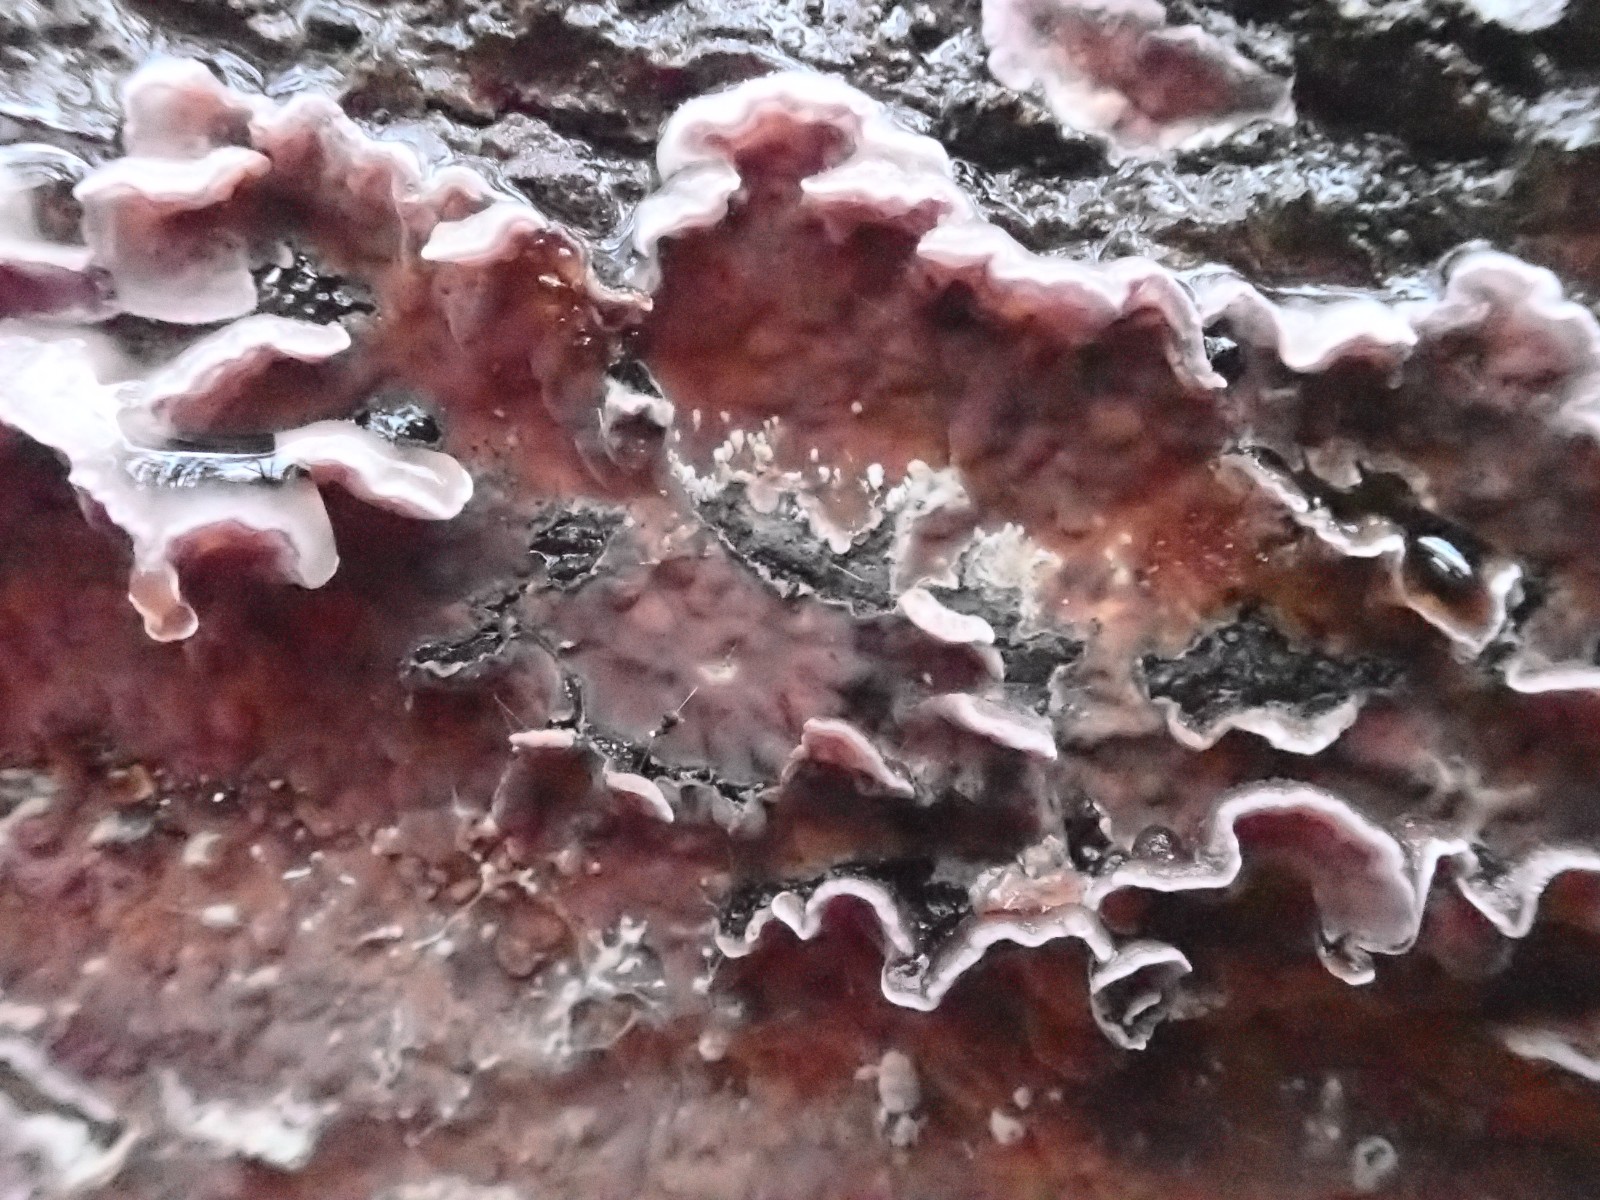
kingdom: Fungi
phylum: Basidiomycota
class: Agaricomycetes
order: Agaricales
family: Cyphellaceae
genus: Chondrostereum
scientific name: Chondrostereum purpureum
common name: purpurlædersvamp
